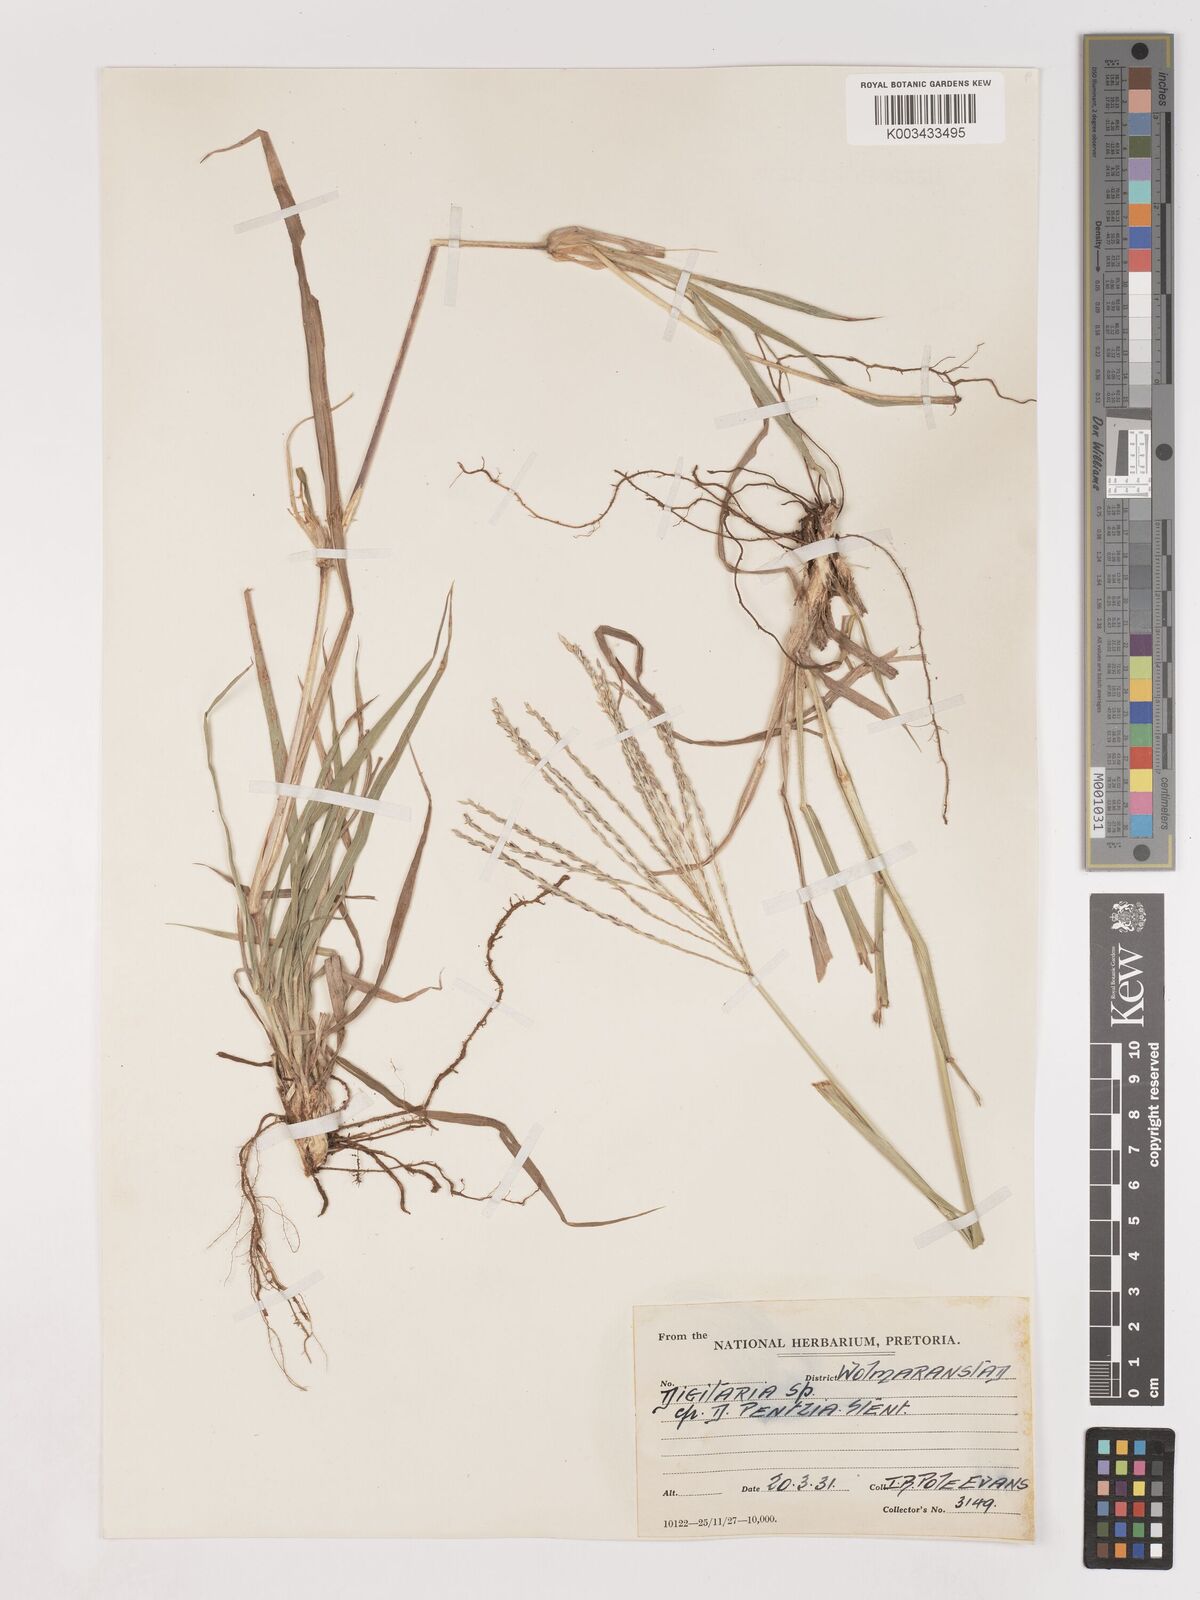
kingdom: Plantae
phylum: Tracheophyta
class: Liliopsida
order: Poales
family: Poaceae
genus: Digitaria
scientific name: Digitaria eriantha
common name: Digitgrass
